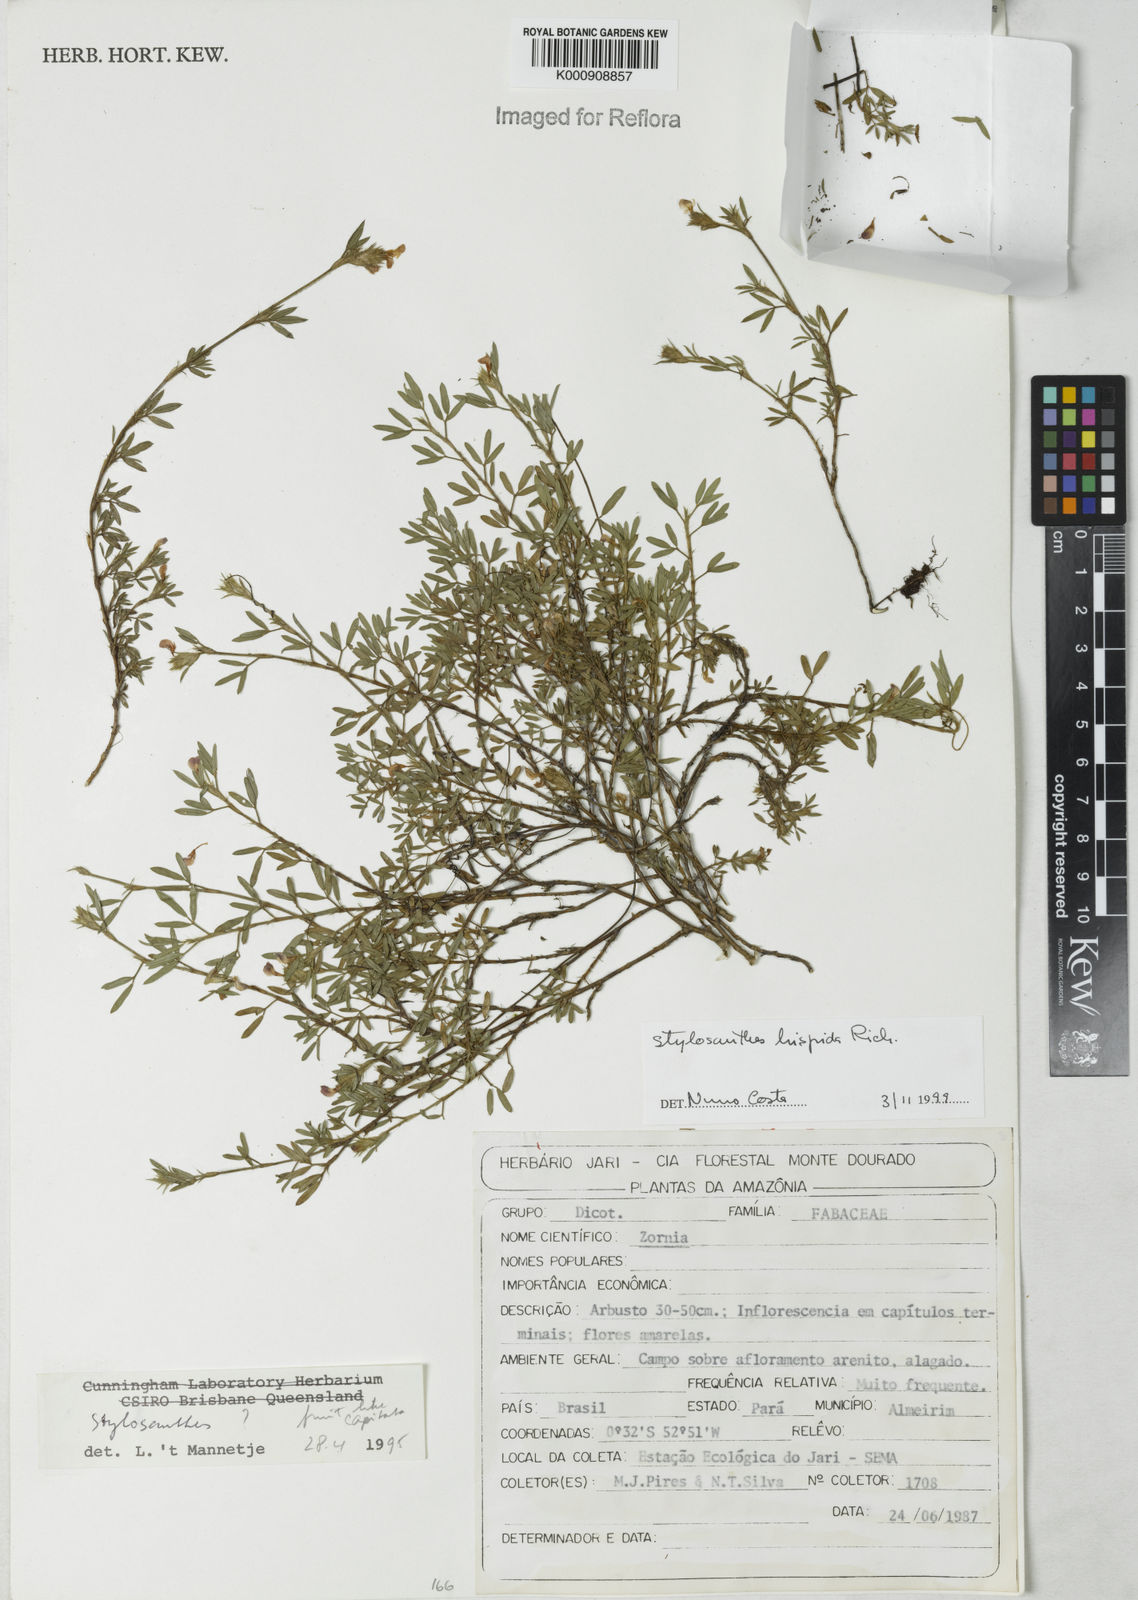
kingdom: Plantae
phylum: Tracheophyta
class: Magnoliopsida
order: Fabales
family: Fabaceae
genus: Stylosanthes
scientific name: Stylosanthes hispida
